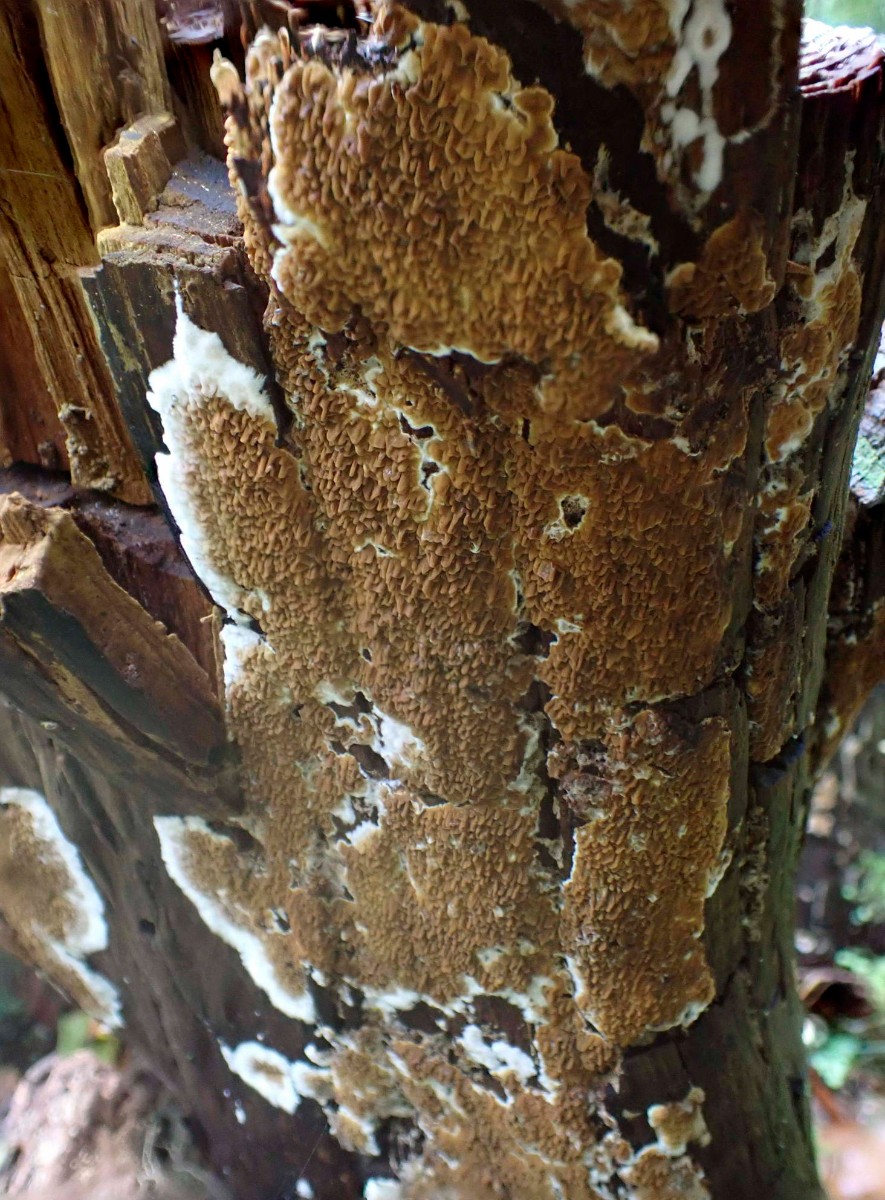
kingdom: Fungi
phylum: Basidiomycota
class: Agaricomycetes
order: Boletales
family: Serpulaceae
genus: Serpula
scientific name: Serpula himantioides
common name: tyndkødet hussvamp
